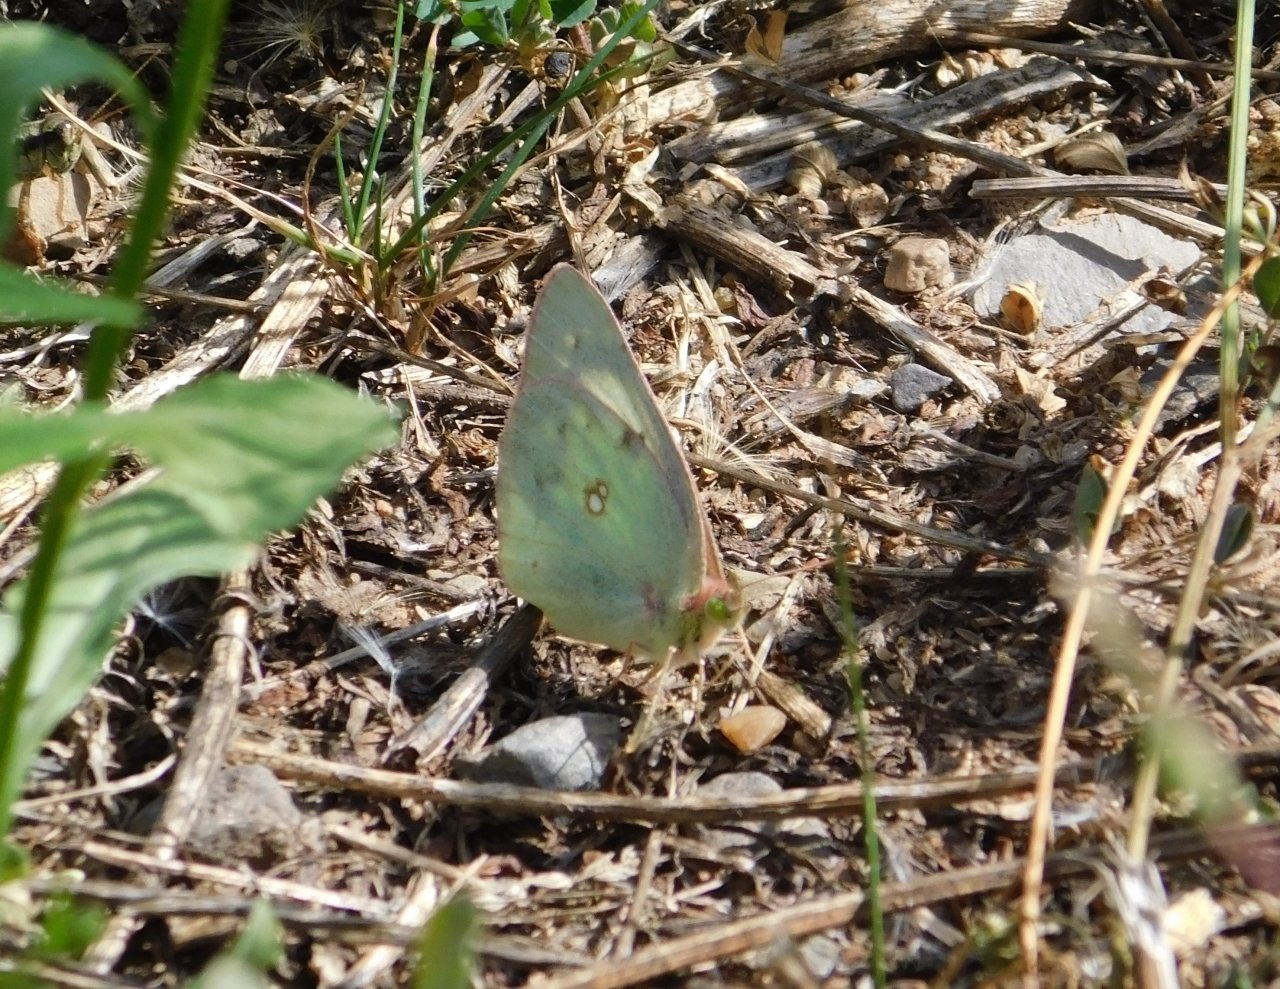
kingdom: Animalia
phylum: Arthropoda
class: Insecta
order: Lepidoptera
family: Pieridae
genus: Colias
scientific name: Colias philodice
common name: Clouded Sulphur
